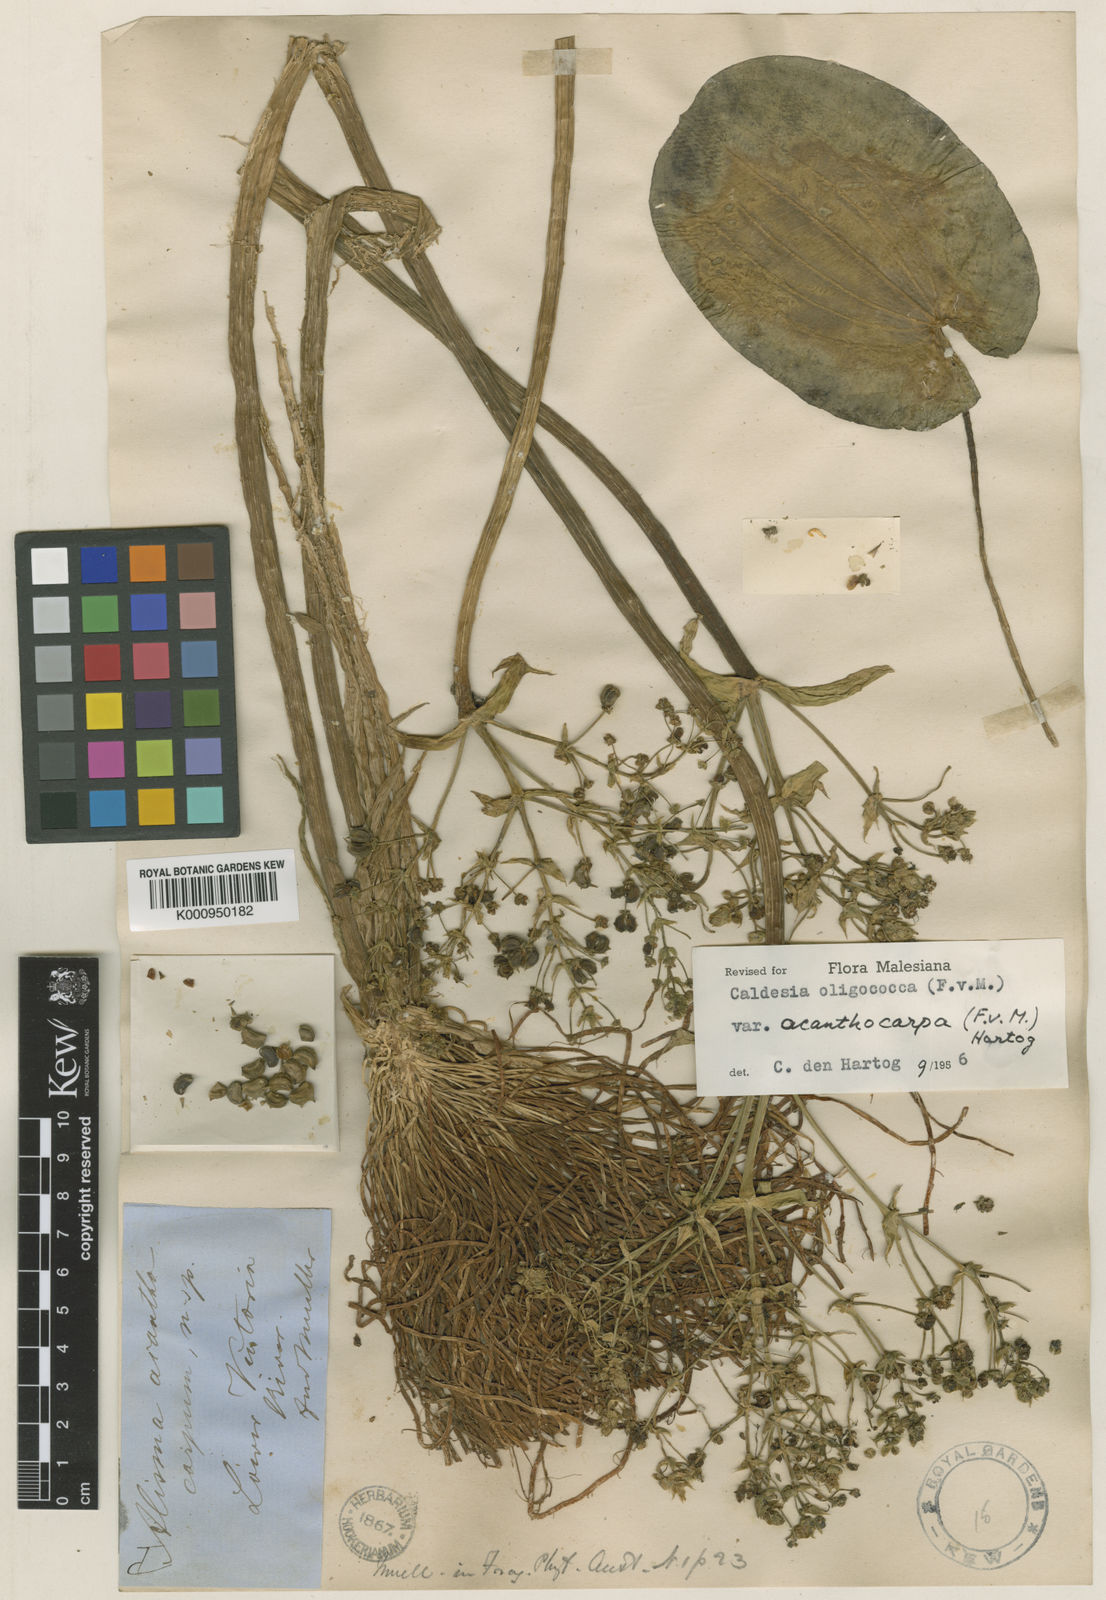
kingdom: Plantae
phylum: Tracheophyta
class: Liliopsida
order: Alismatales
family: Alismataceae
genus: Albidella
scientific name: Albidella acanthocarpa
